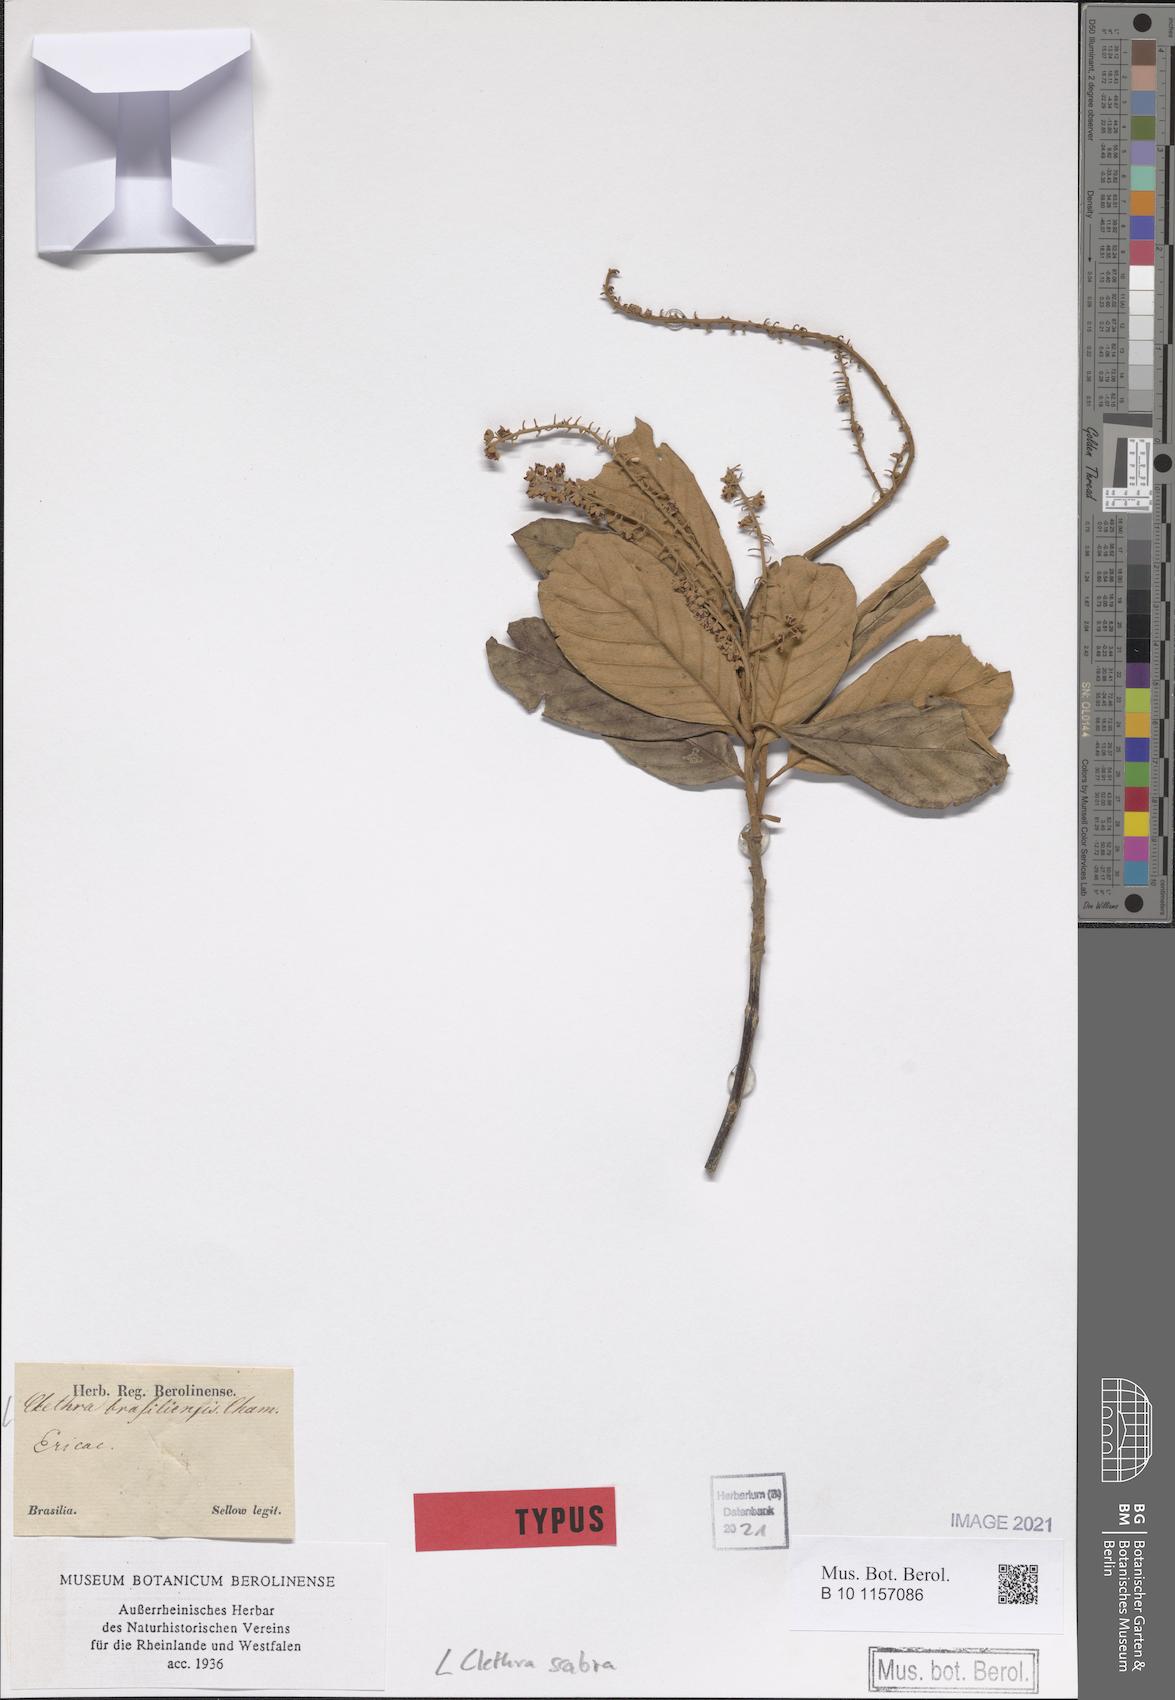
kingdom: Plantae
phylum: Tracheophyta
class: Magnoliopsida
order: Ericales
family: Clethraceae
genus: Clethra
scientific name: Clethra scabra
